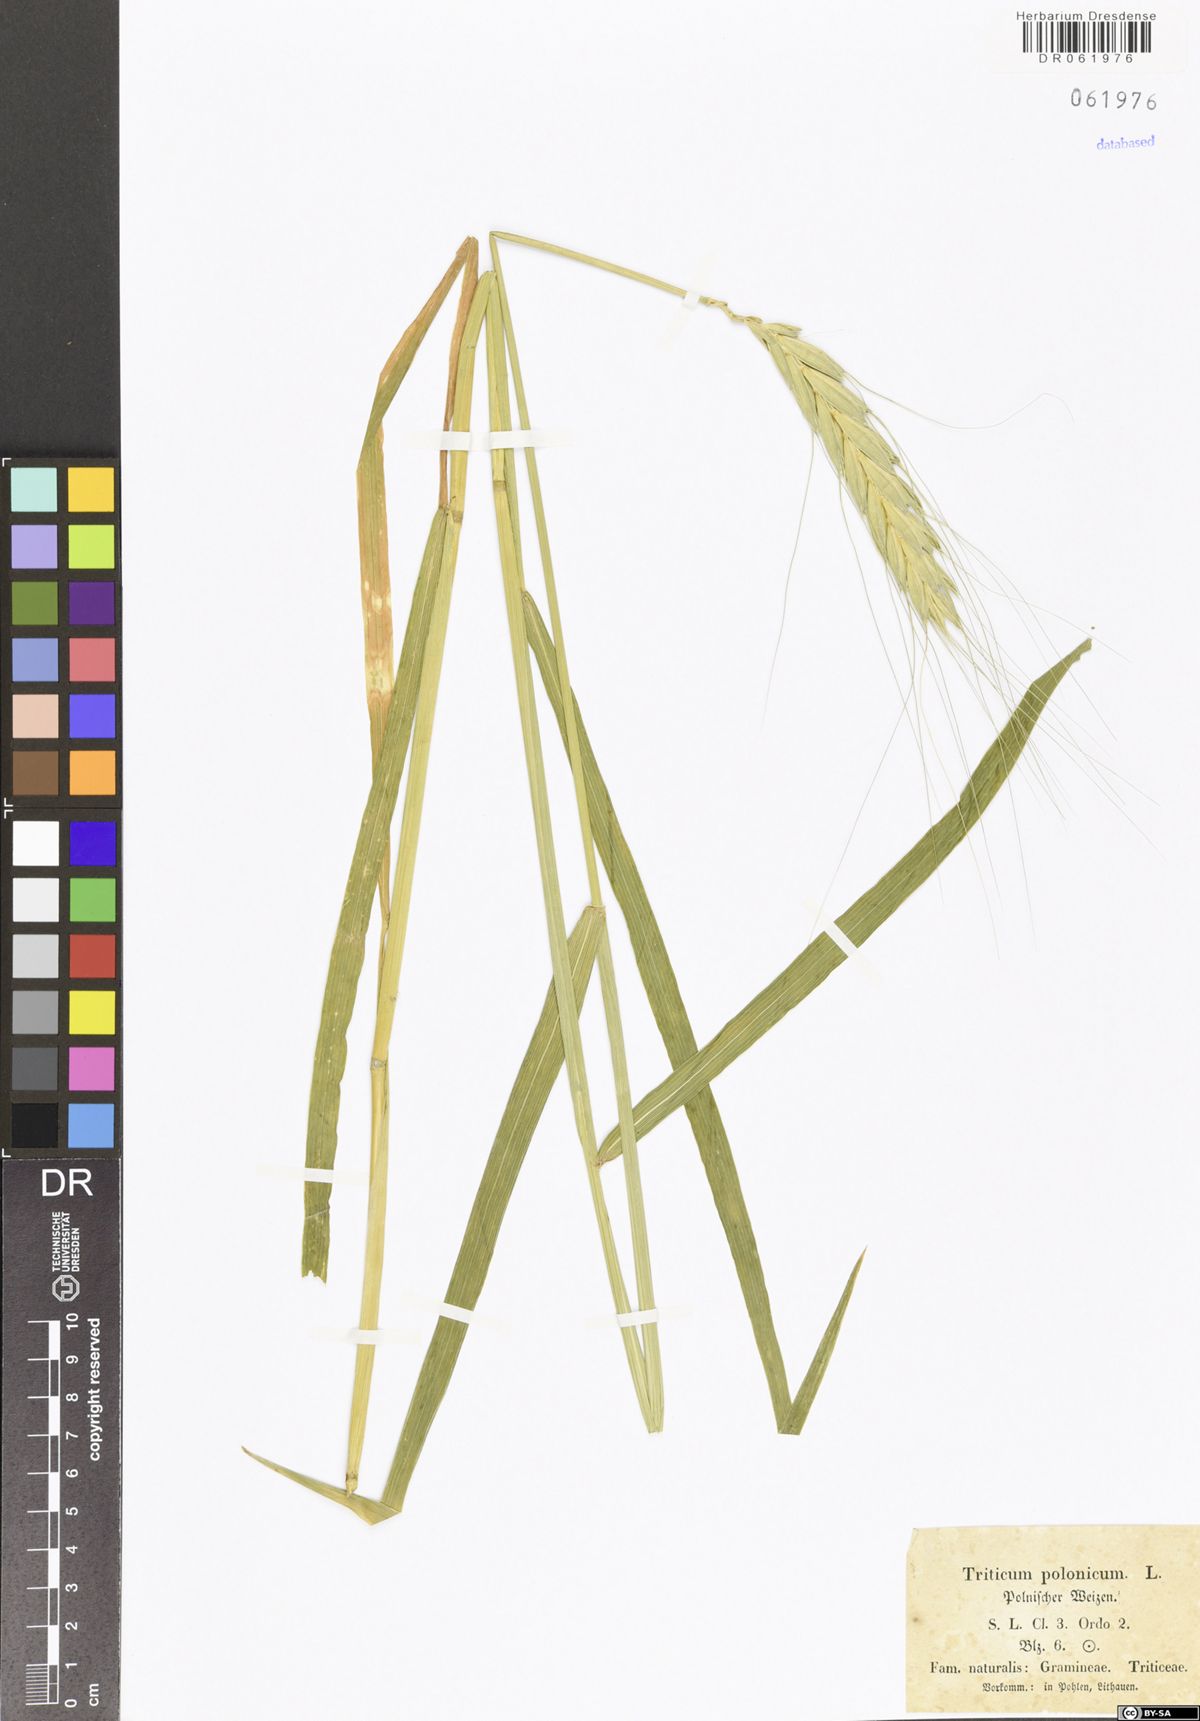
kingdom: Plantae
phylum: Tracheophyta
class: Liliopsida
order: Poales
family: Poaceae
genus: Triticum
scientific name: Triticum turgidum
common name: Rivet wheat
